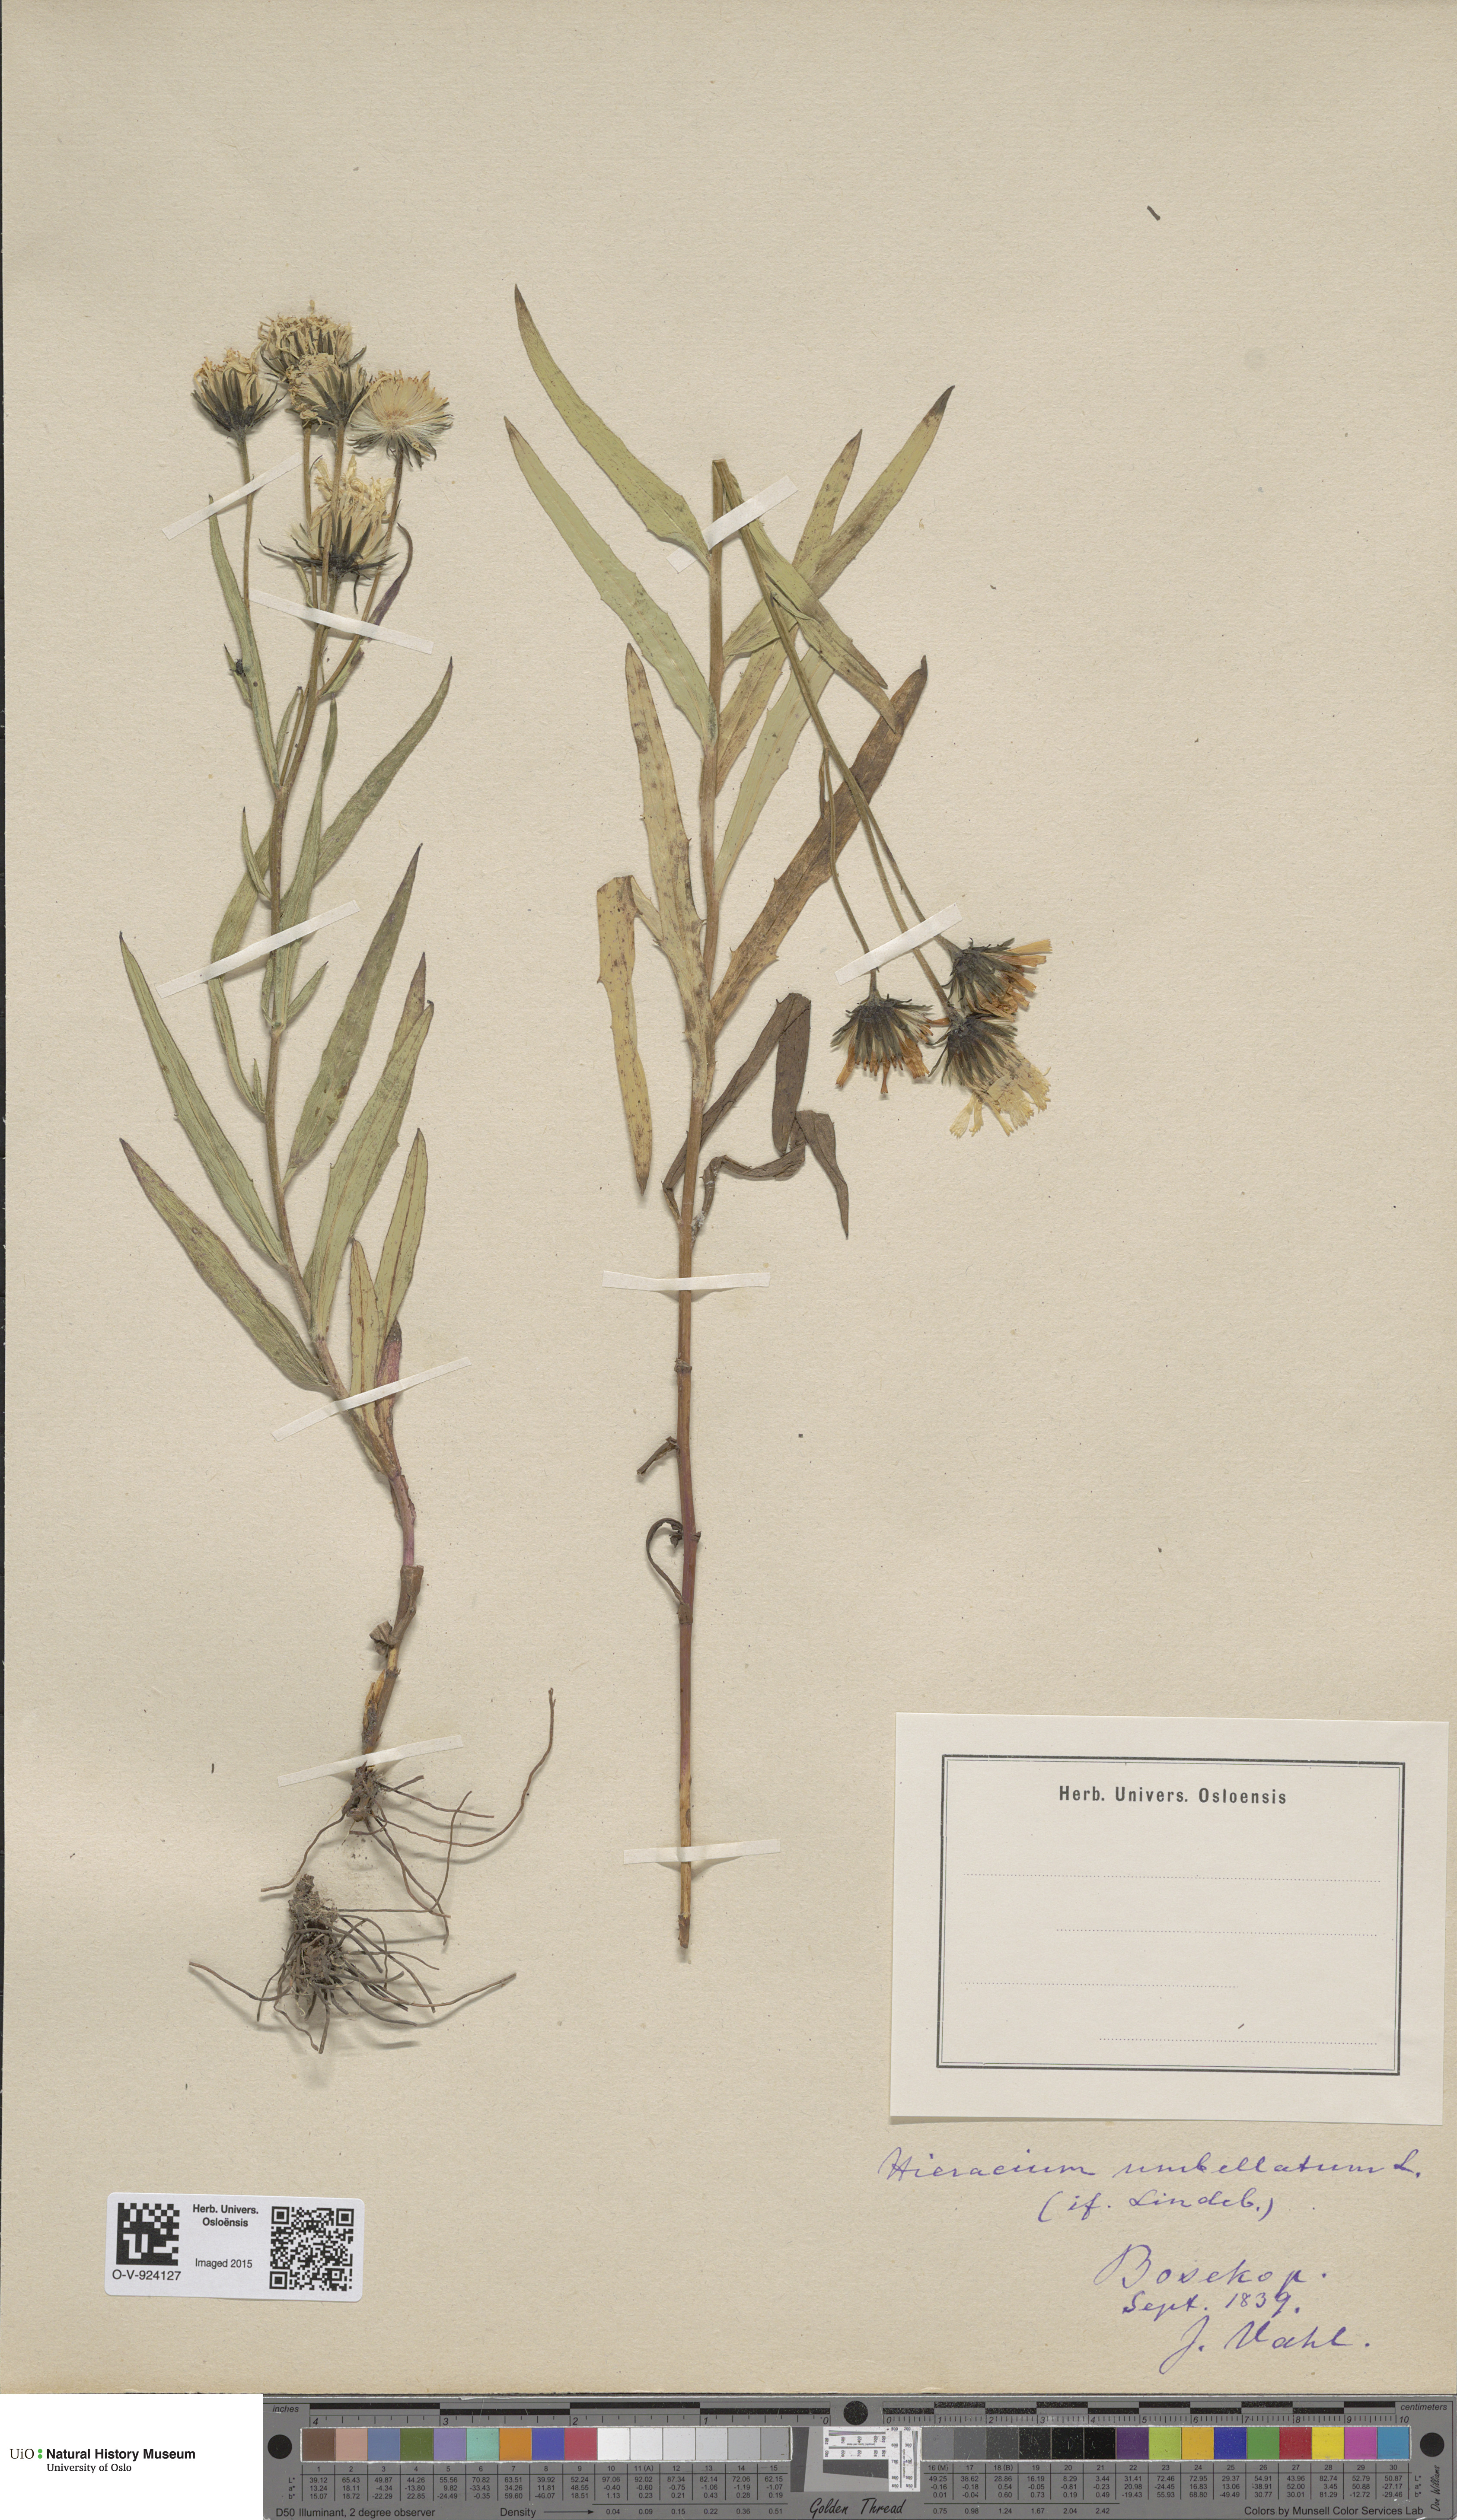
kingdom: Plantae
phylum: Tracheophyta
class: Magnoliopsida
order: Asterales
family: Asteraceae
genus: Hieracium
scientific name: Hieracium umbellatum
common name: Northern hawkweed
